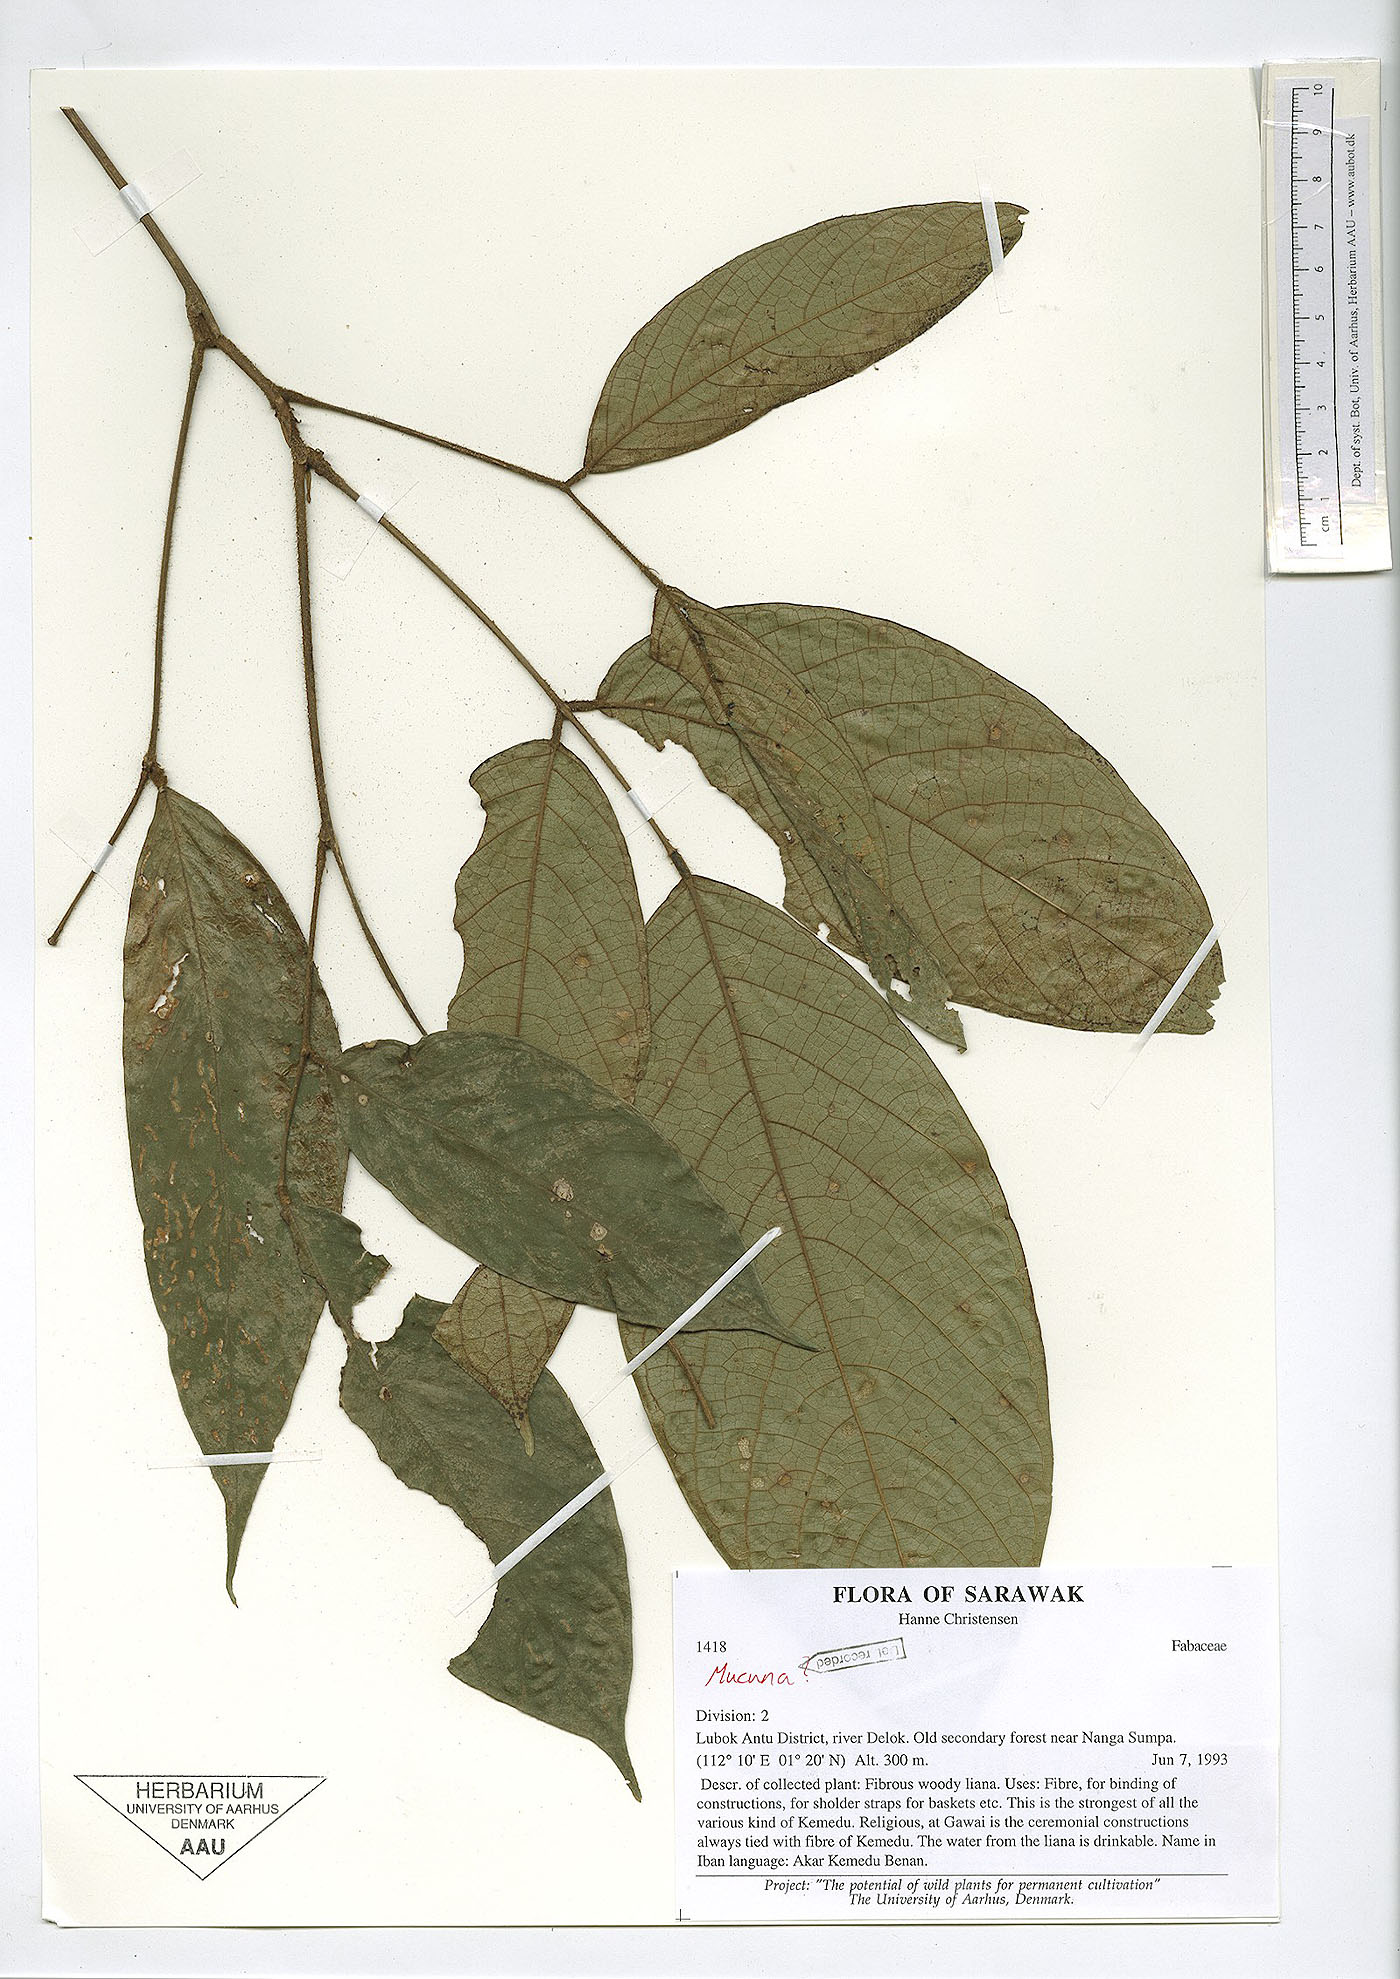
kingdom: Plantae
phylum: Tracheophyta
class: Magnoliopsida
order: Fabales
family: Fabaceae
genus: Spatholobus
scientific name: Spatholobus
